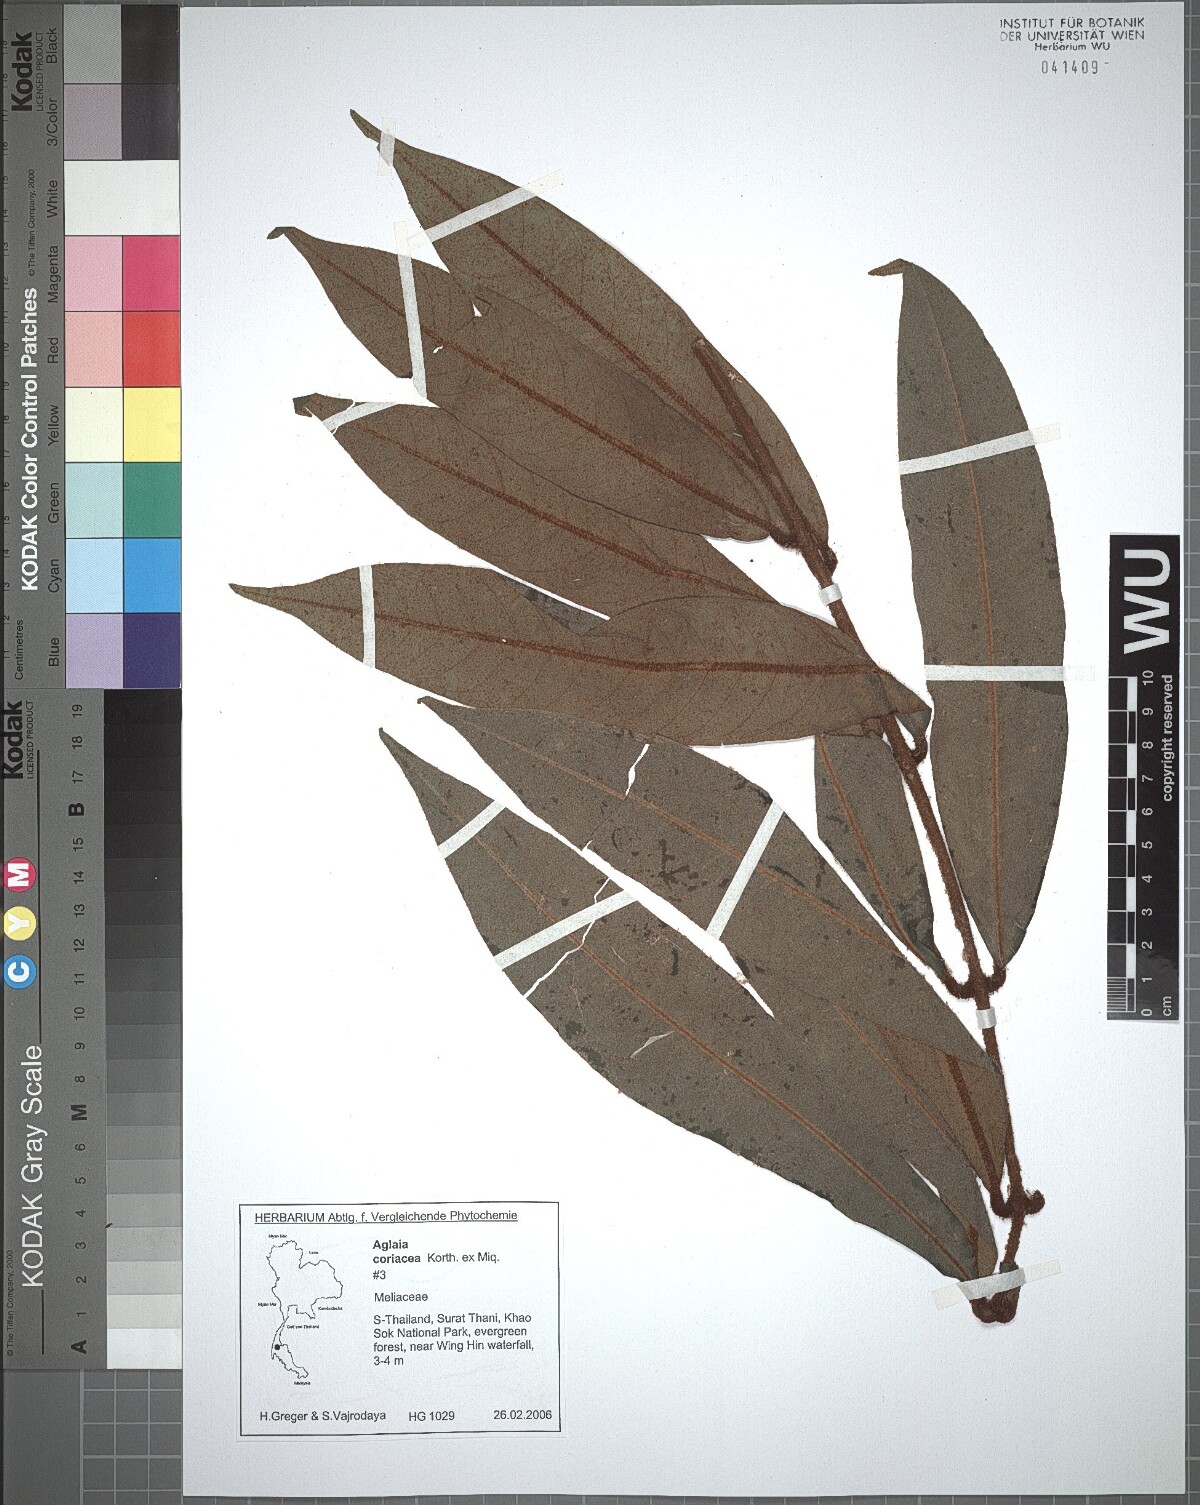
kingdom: Plantae
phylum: Tracheophyta
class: Magnoliopsida
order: Sapindales
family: Meliaceae
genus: Aglaia
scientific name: Aglaia coriacea
